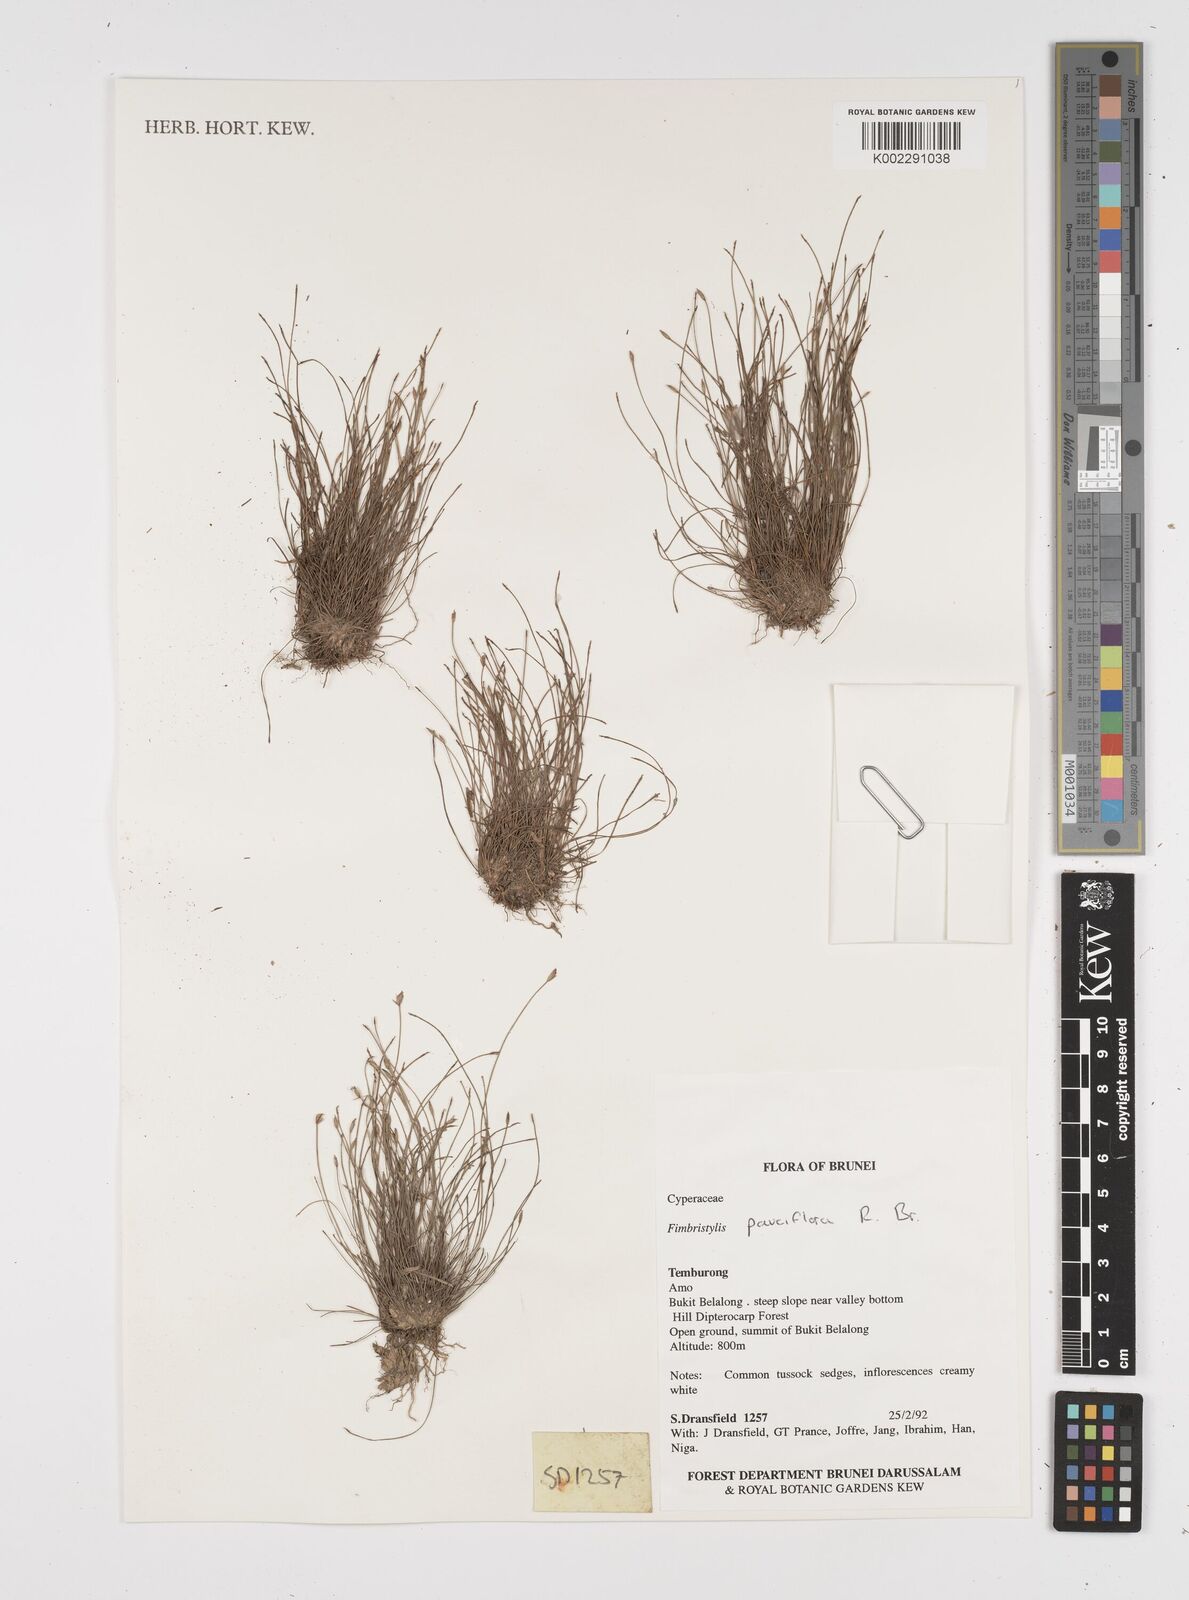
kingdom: Plantae
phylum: Tracheophyta
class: Liliopsida
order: Poales
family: Cyperaceae
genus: Fimbristylis
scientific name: Fimbristylis pauciflora
